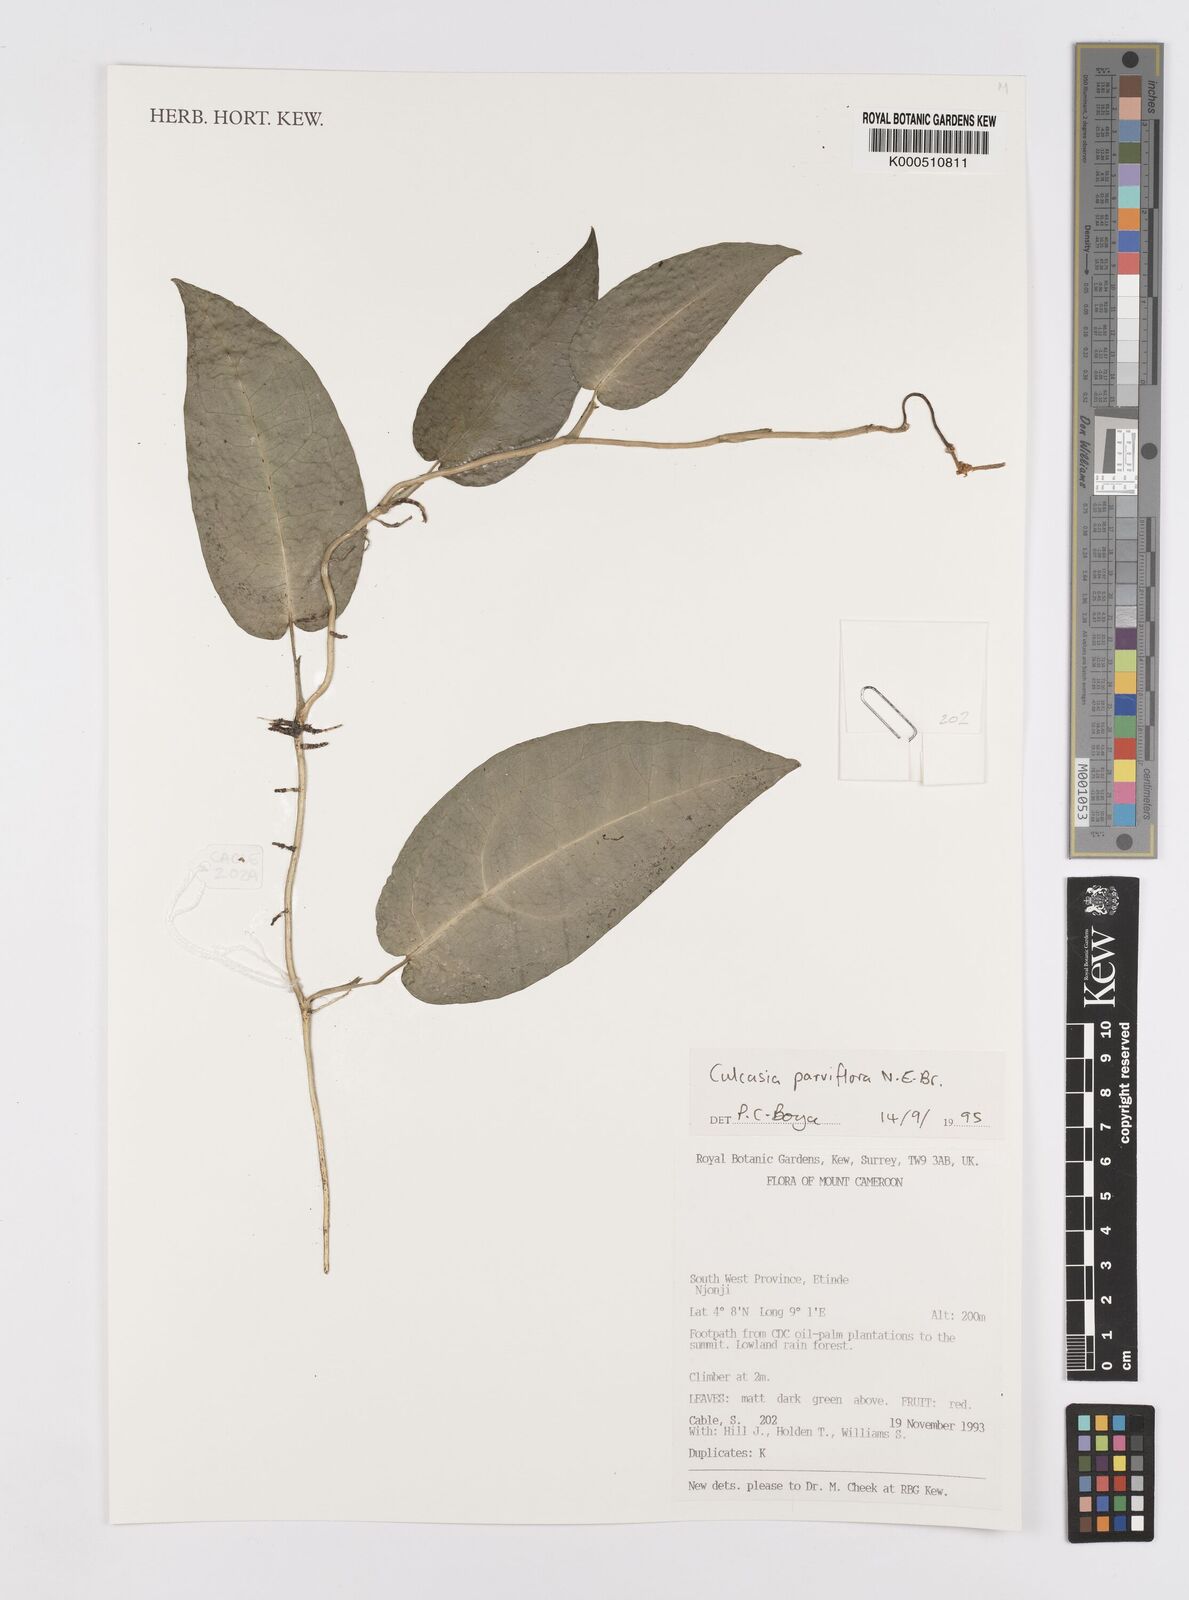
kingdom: Plantae
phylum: Tracheophyta
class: Liliopsida
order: Alismatales
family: Araceae
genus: Culcasia
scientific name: Culcasia parviflora
